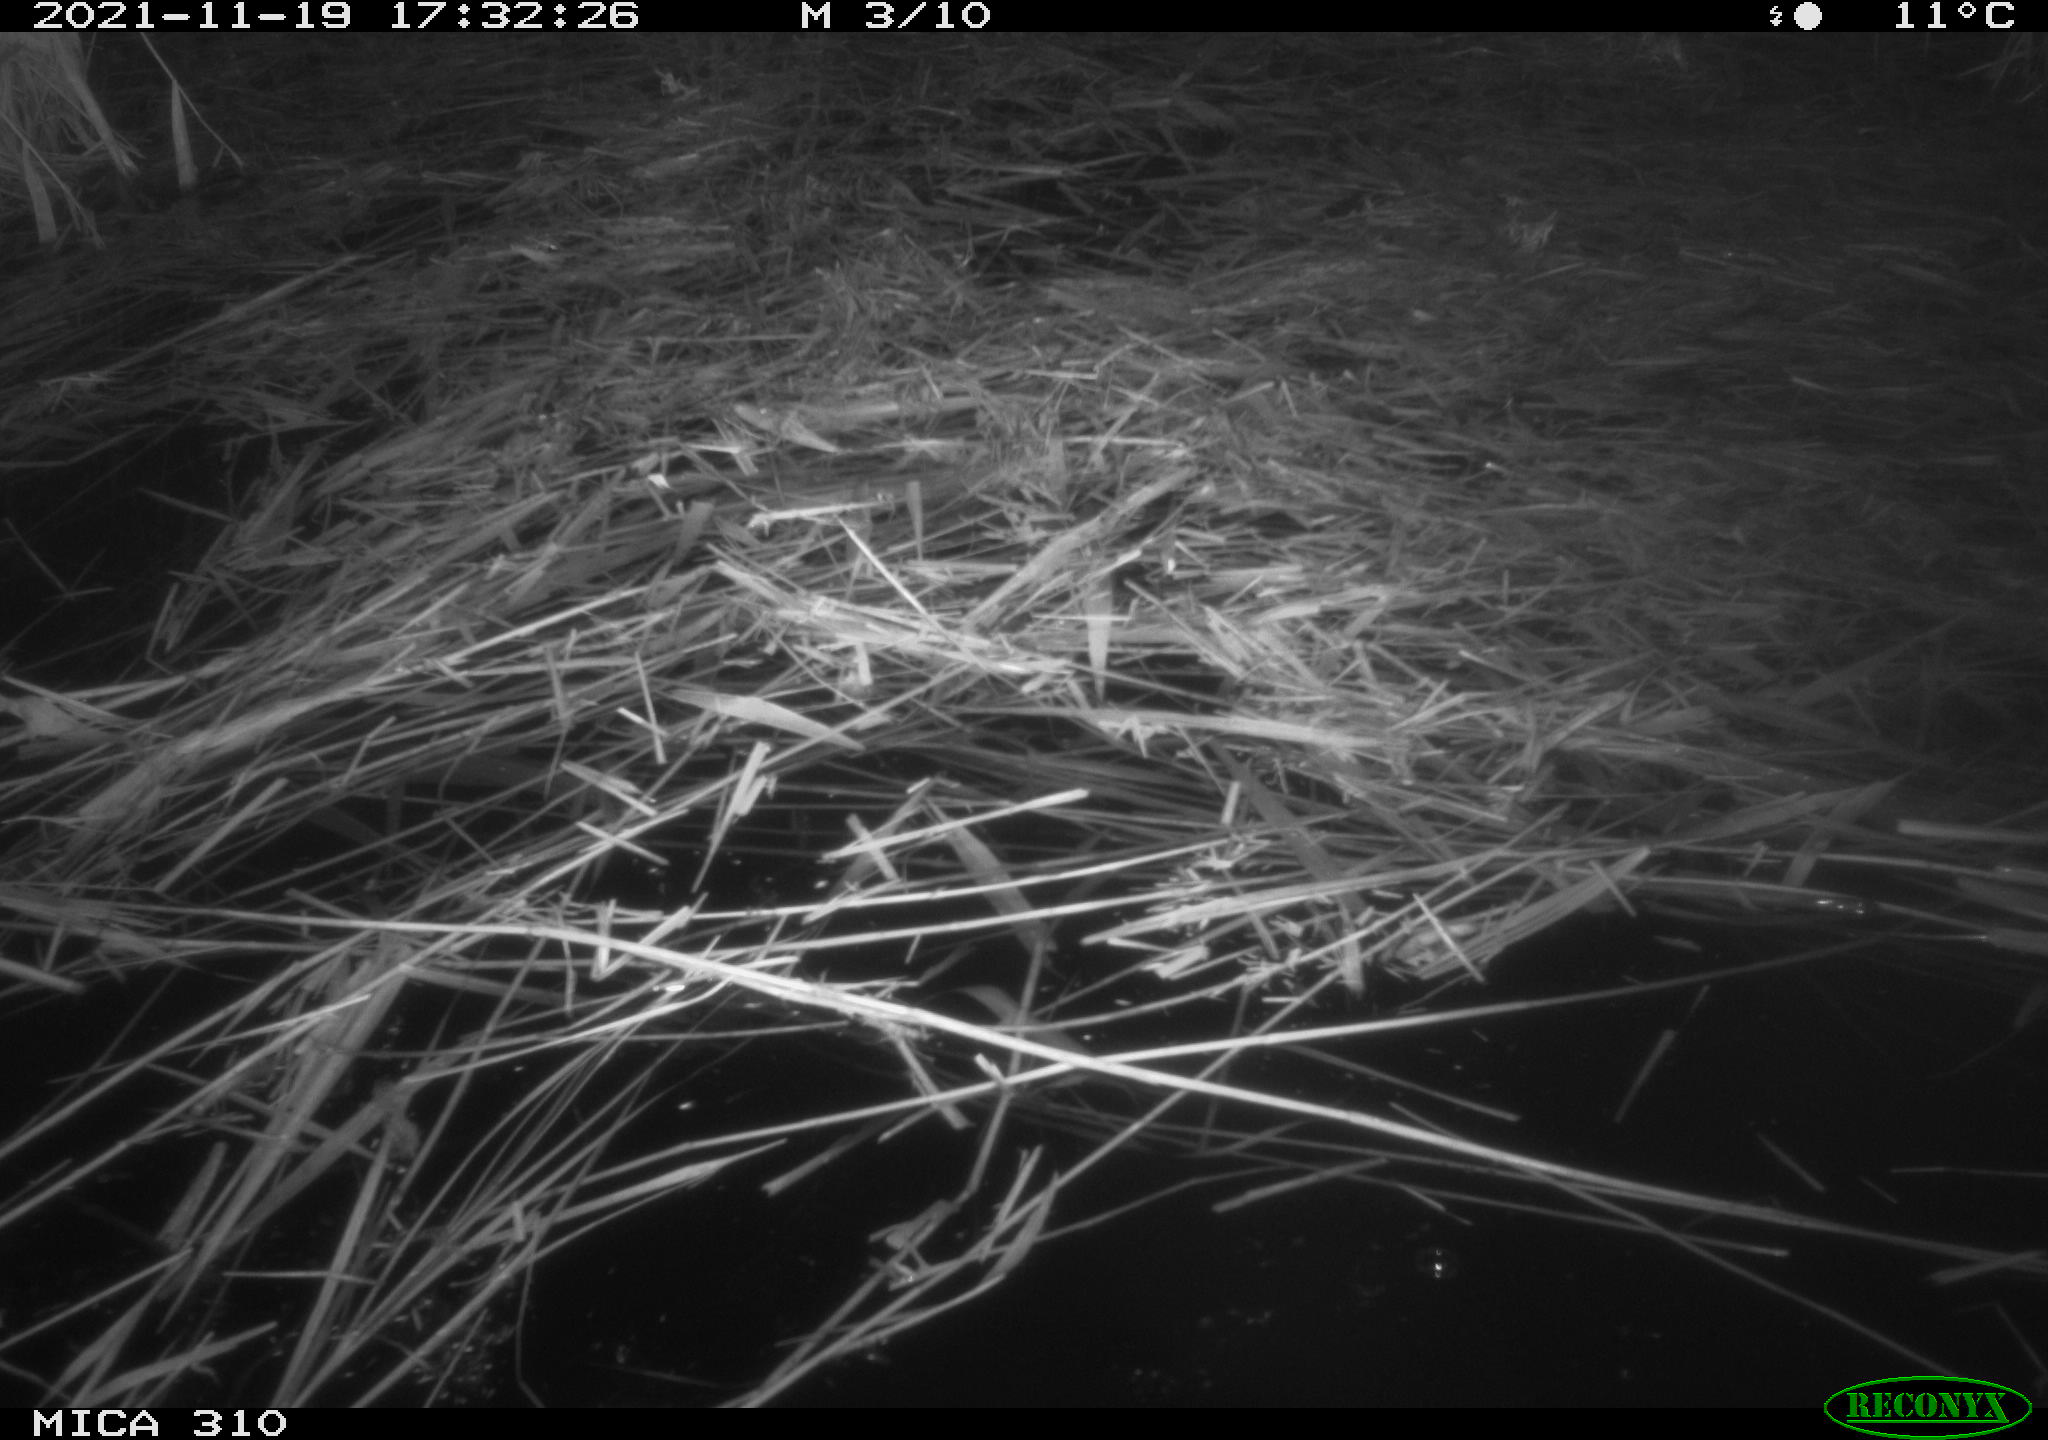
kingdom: Animalia
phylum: Chordata
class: Mammalia
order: Rodentia
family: Muridae
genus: Rattus
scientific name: Rattus norvegicus
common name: Brown rat
